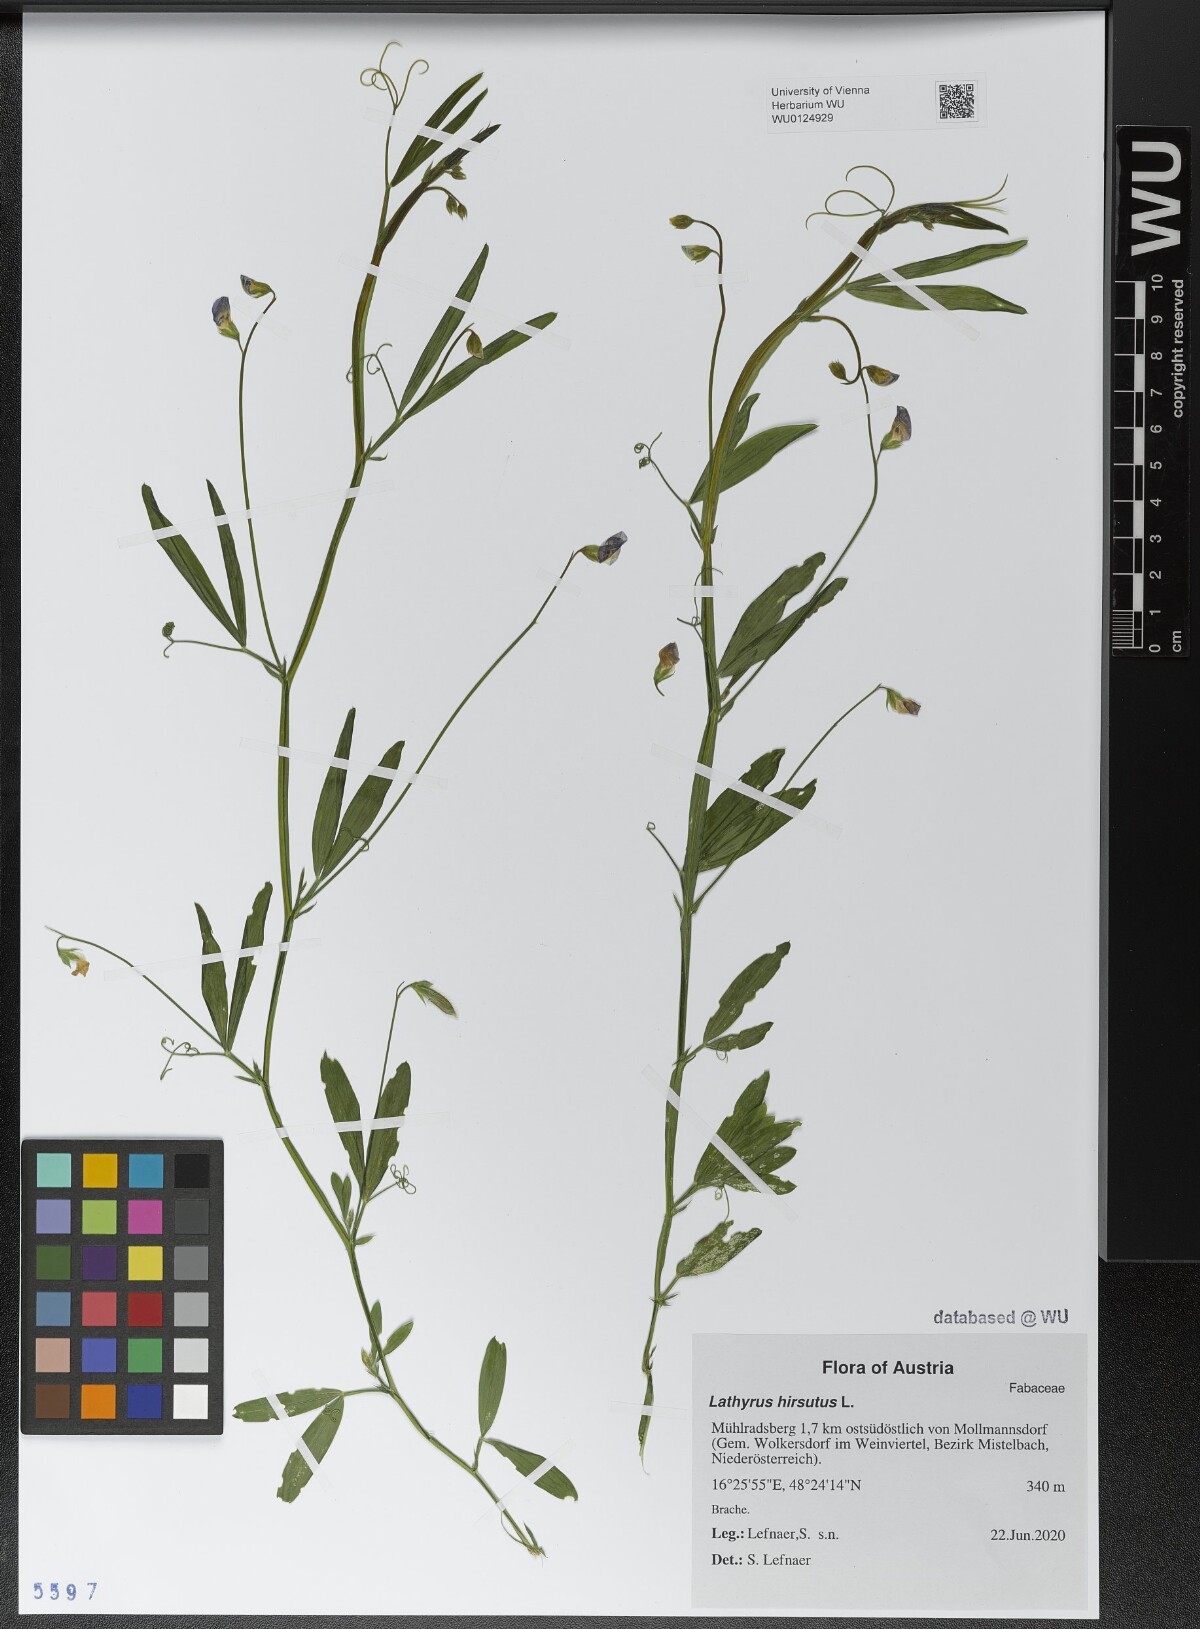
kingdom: Plantae
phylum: Tracheophyta
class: Magnoliopsida
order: Fabales
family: Fabaceae
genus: Lathyrus
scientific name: Lathyrus hirsutus
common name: Hairy vetchling
